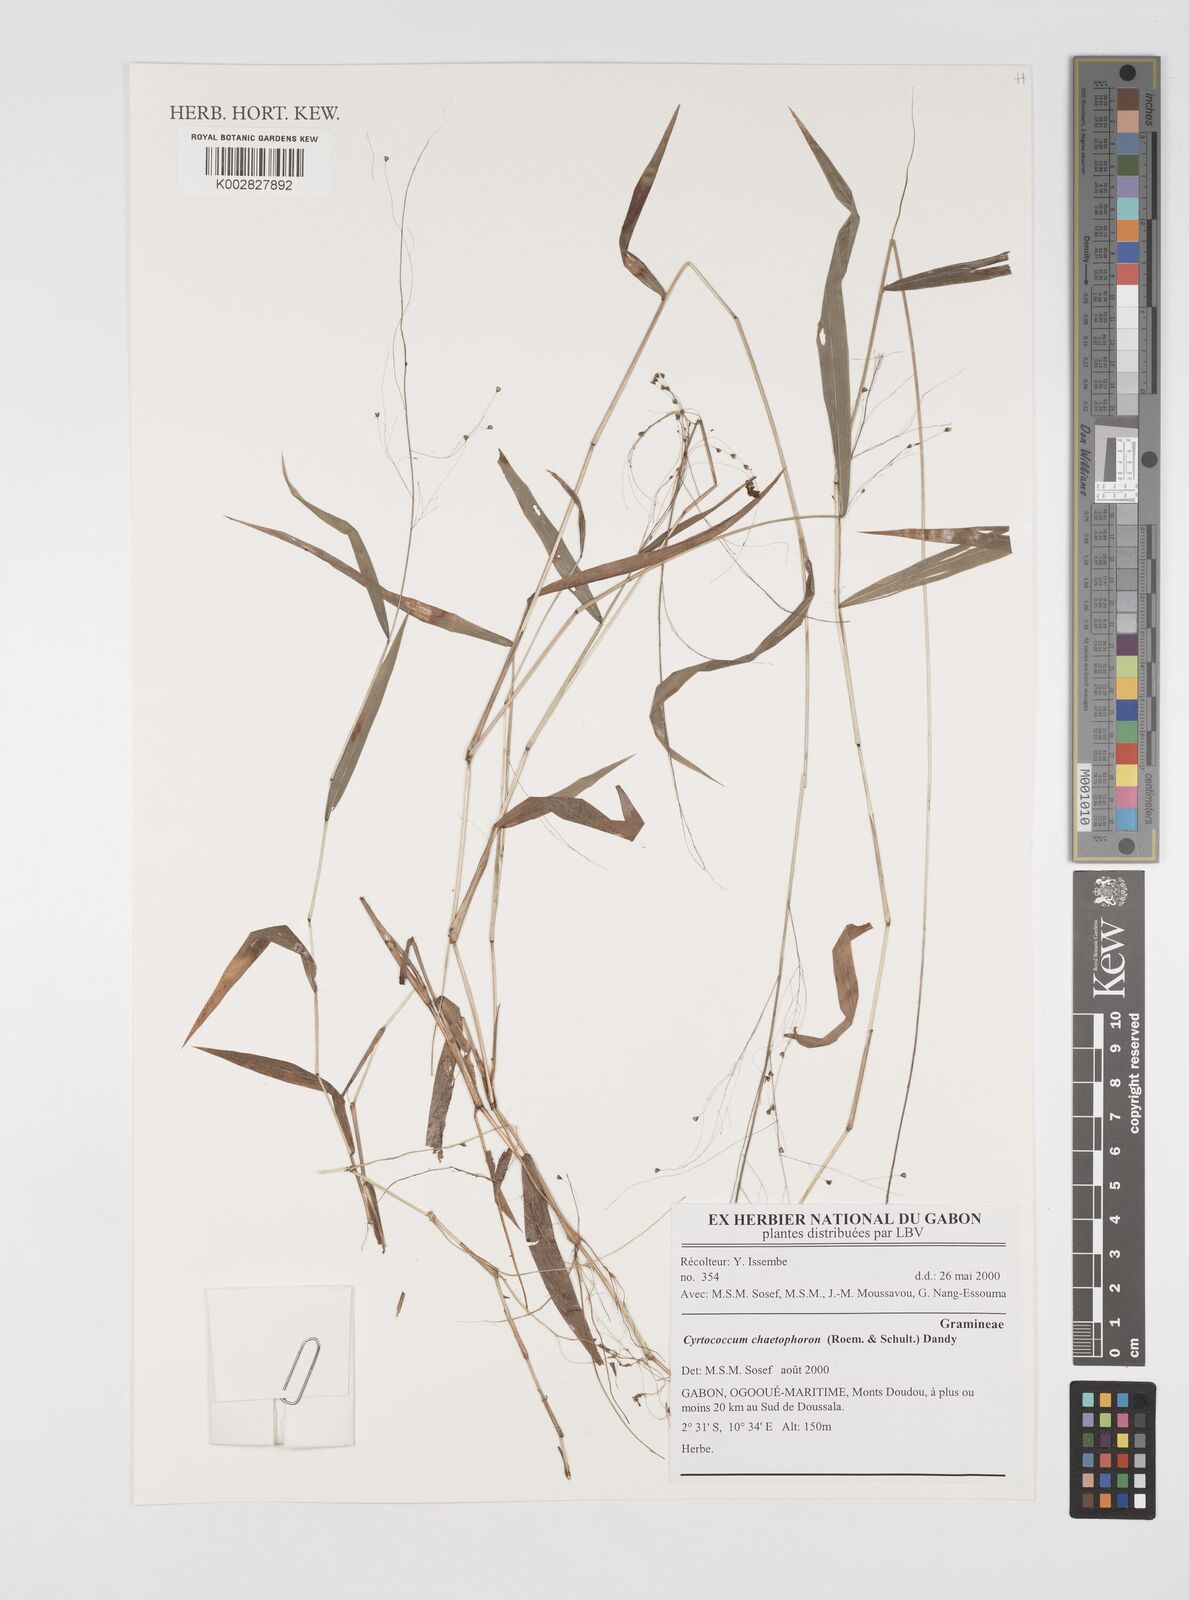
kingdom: Plantae
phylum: Tracheophyta
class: Liliopsida
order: Poales
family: Poaceae
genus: Cyrtococcum
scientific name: Cyrtococcum chaetophoron
